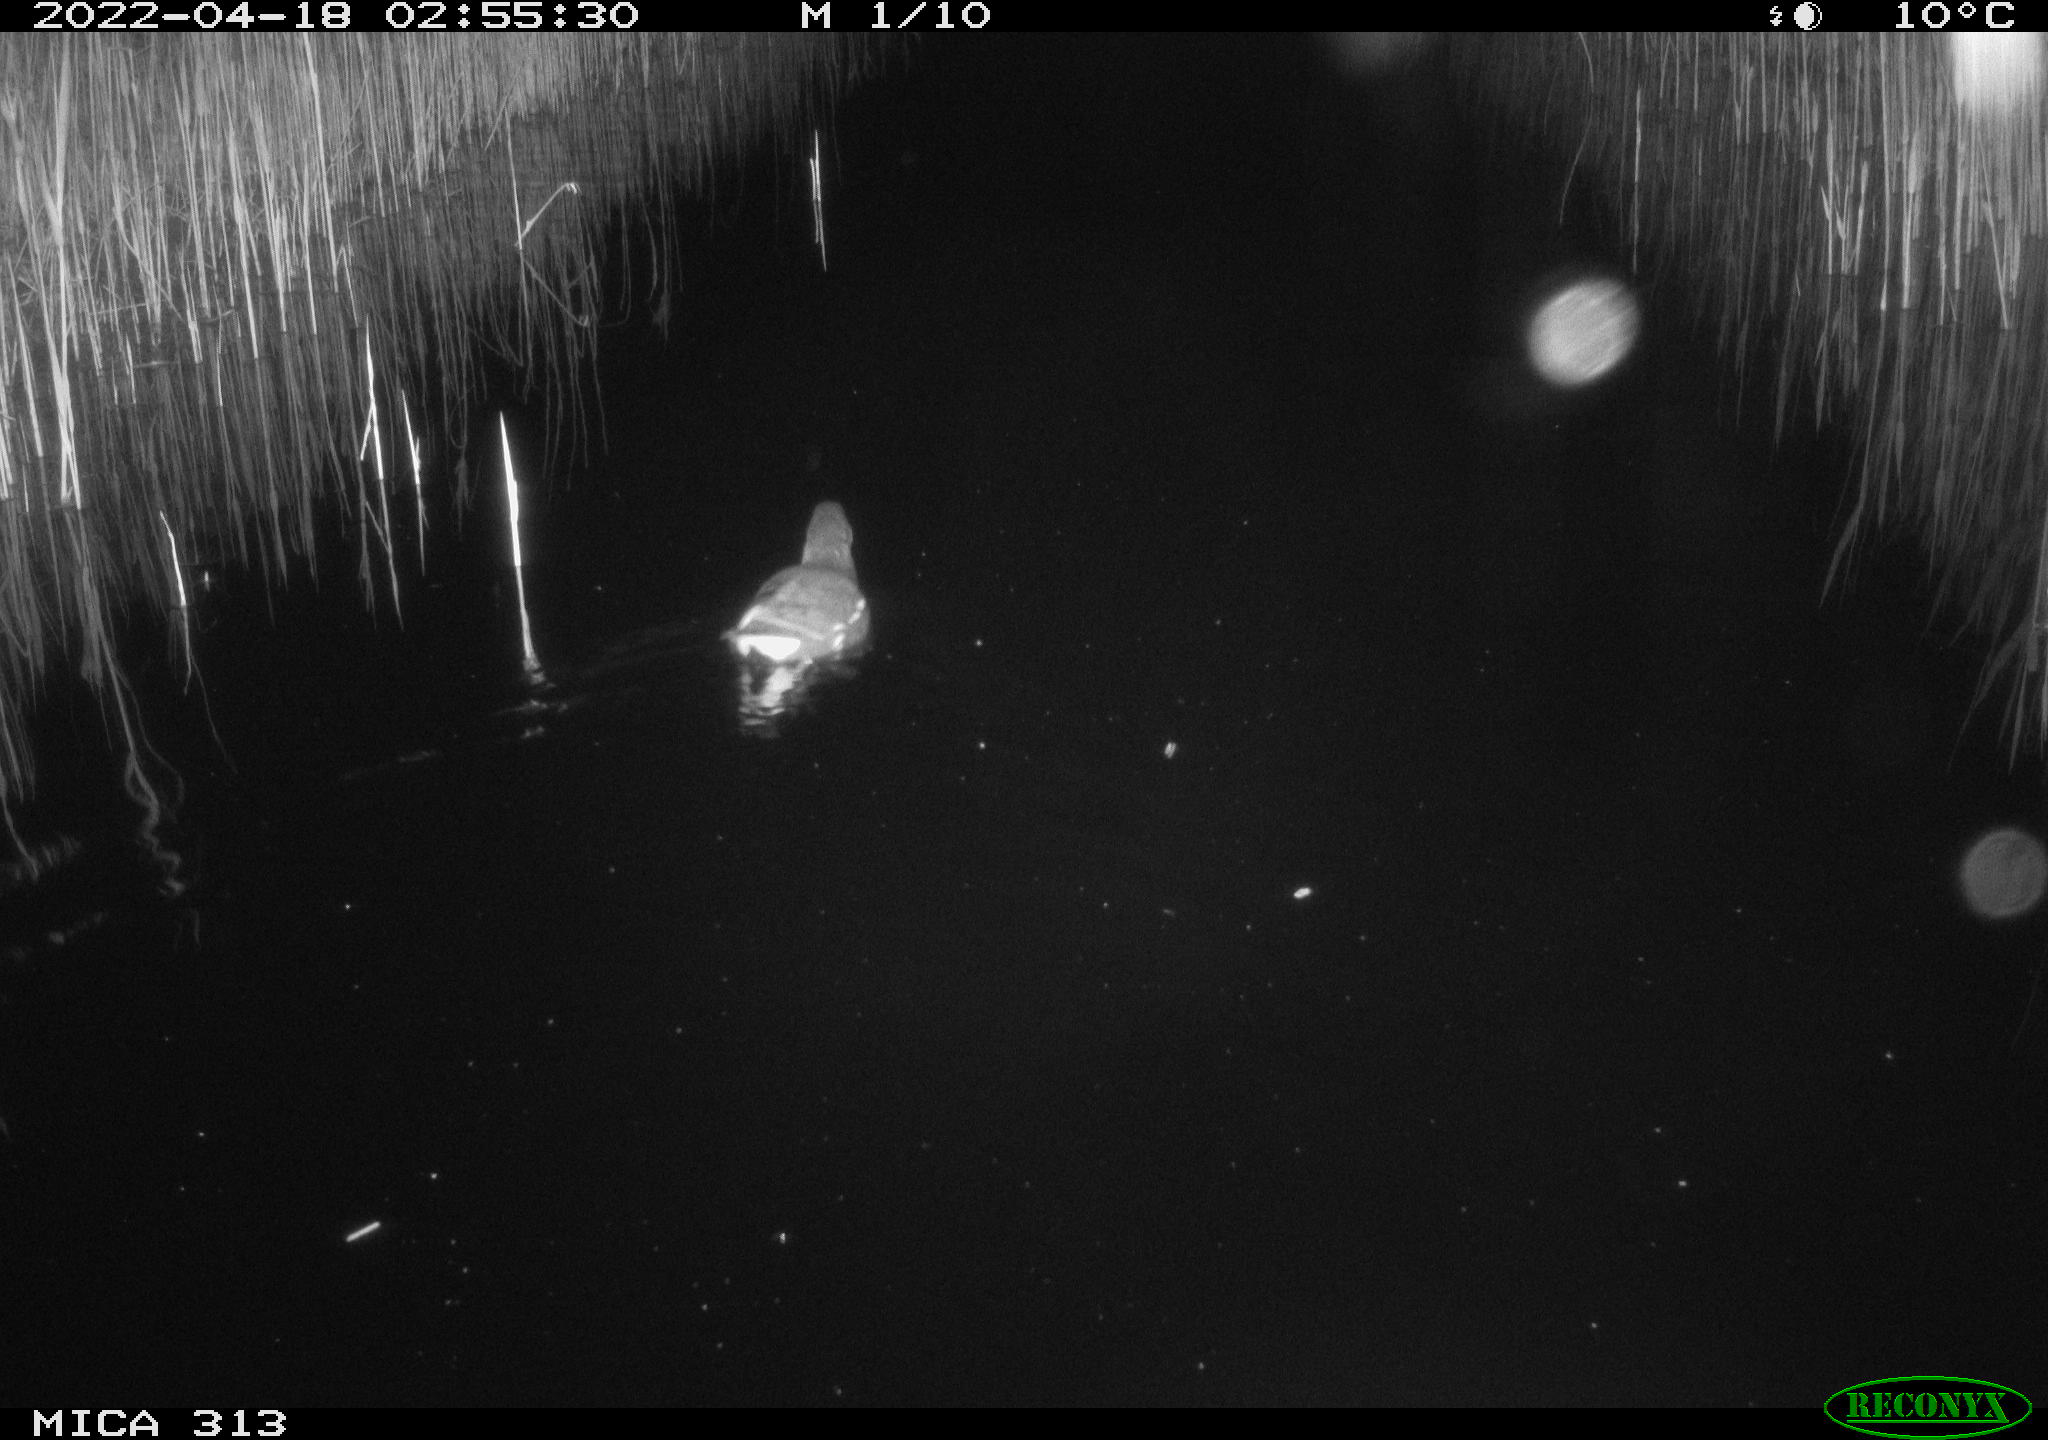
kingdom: Animalia
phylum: Chordata
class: Aves
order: Gruiformes
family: Rallidae
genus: Gallinula
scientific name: Gallinula chloropus
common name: Common moorhen
